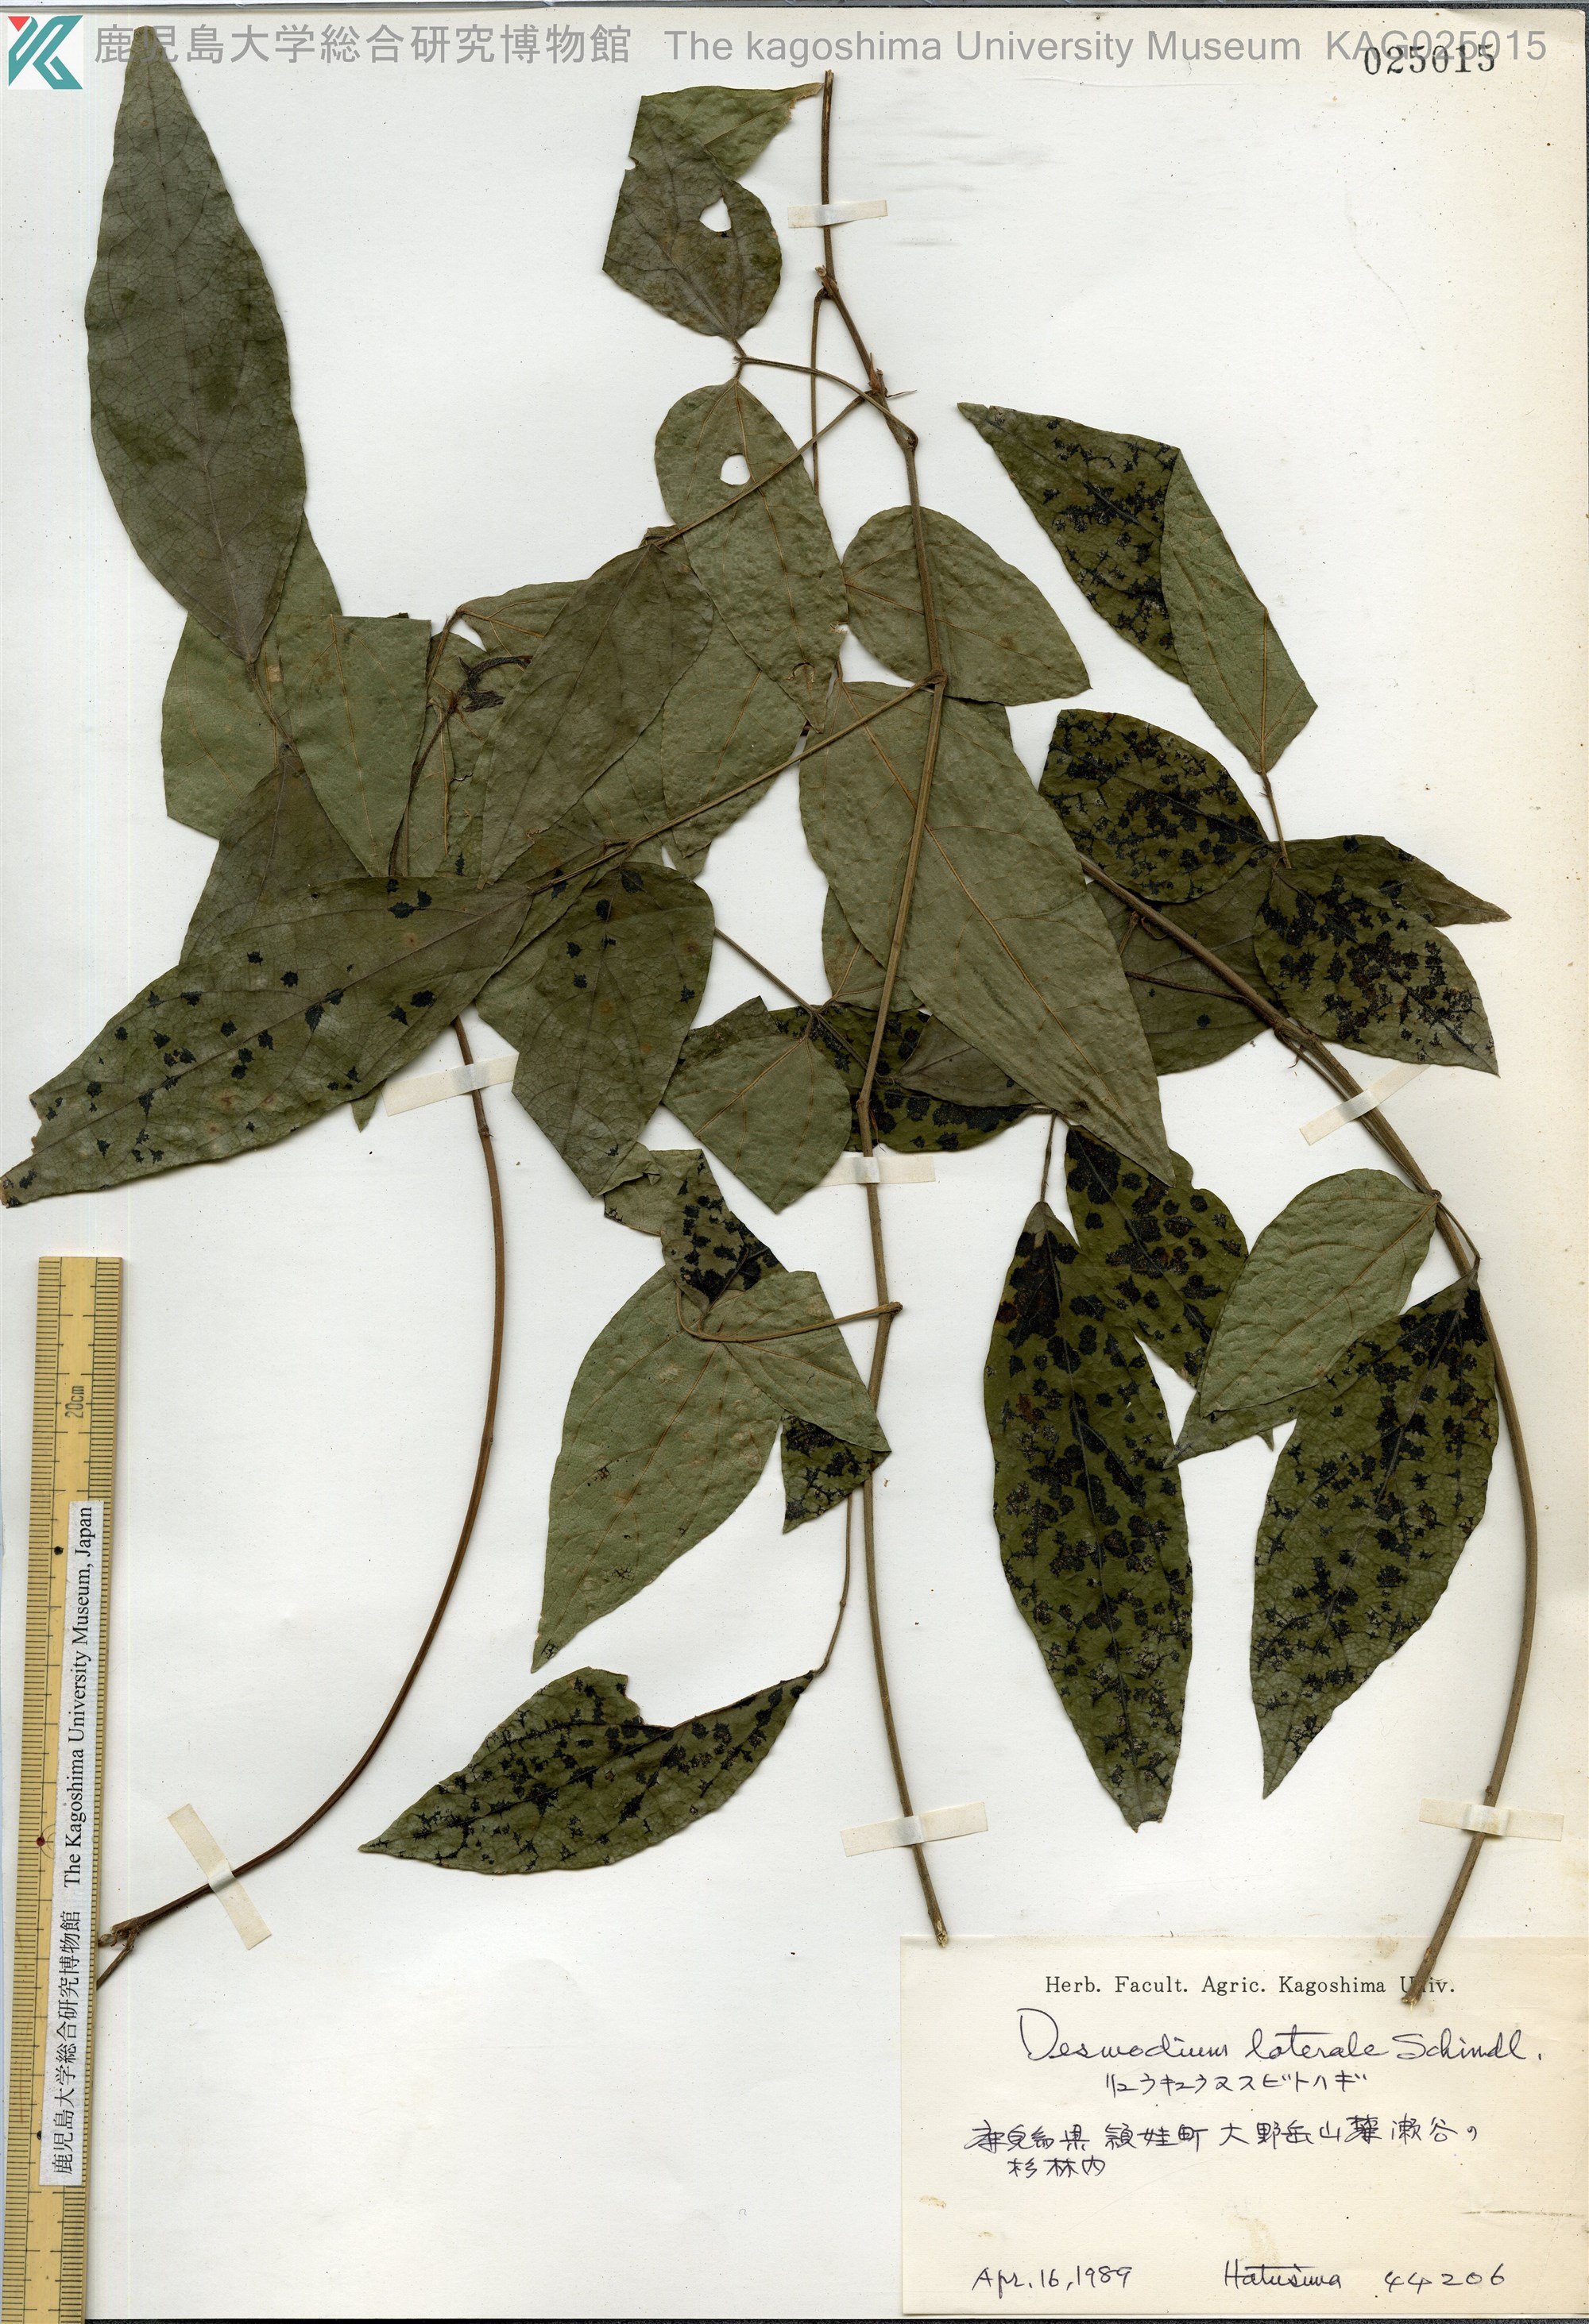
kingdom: Plantae
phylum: Tracheophyta
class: Magnoliopsida
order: Fabales
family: Fabaceae
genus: Hylodesmum
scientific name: Hylodesmum laterale
